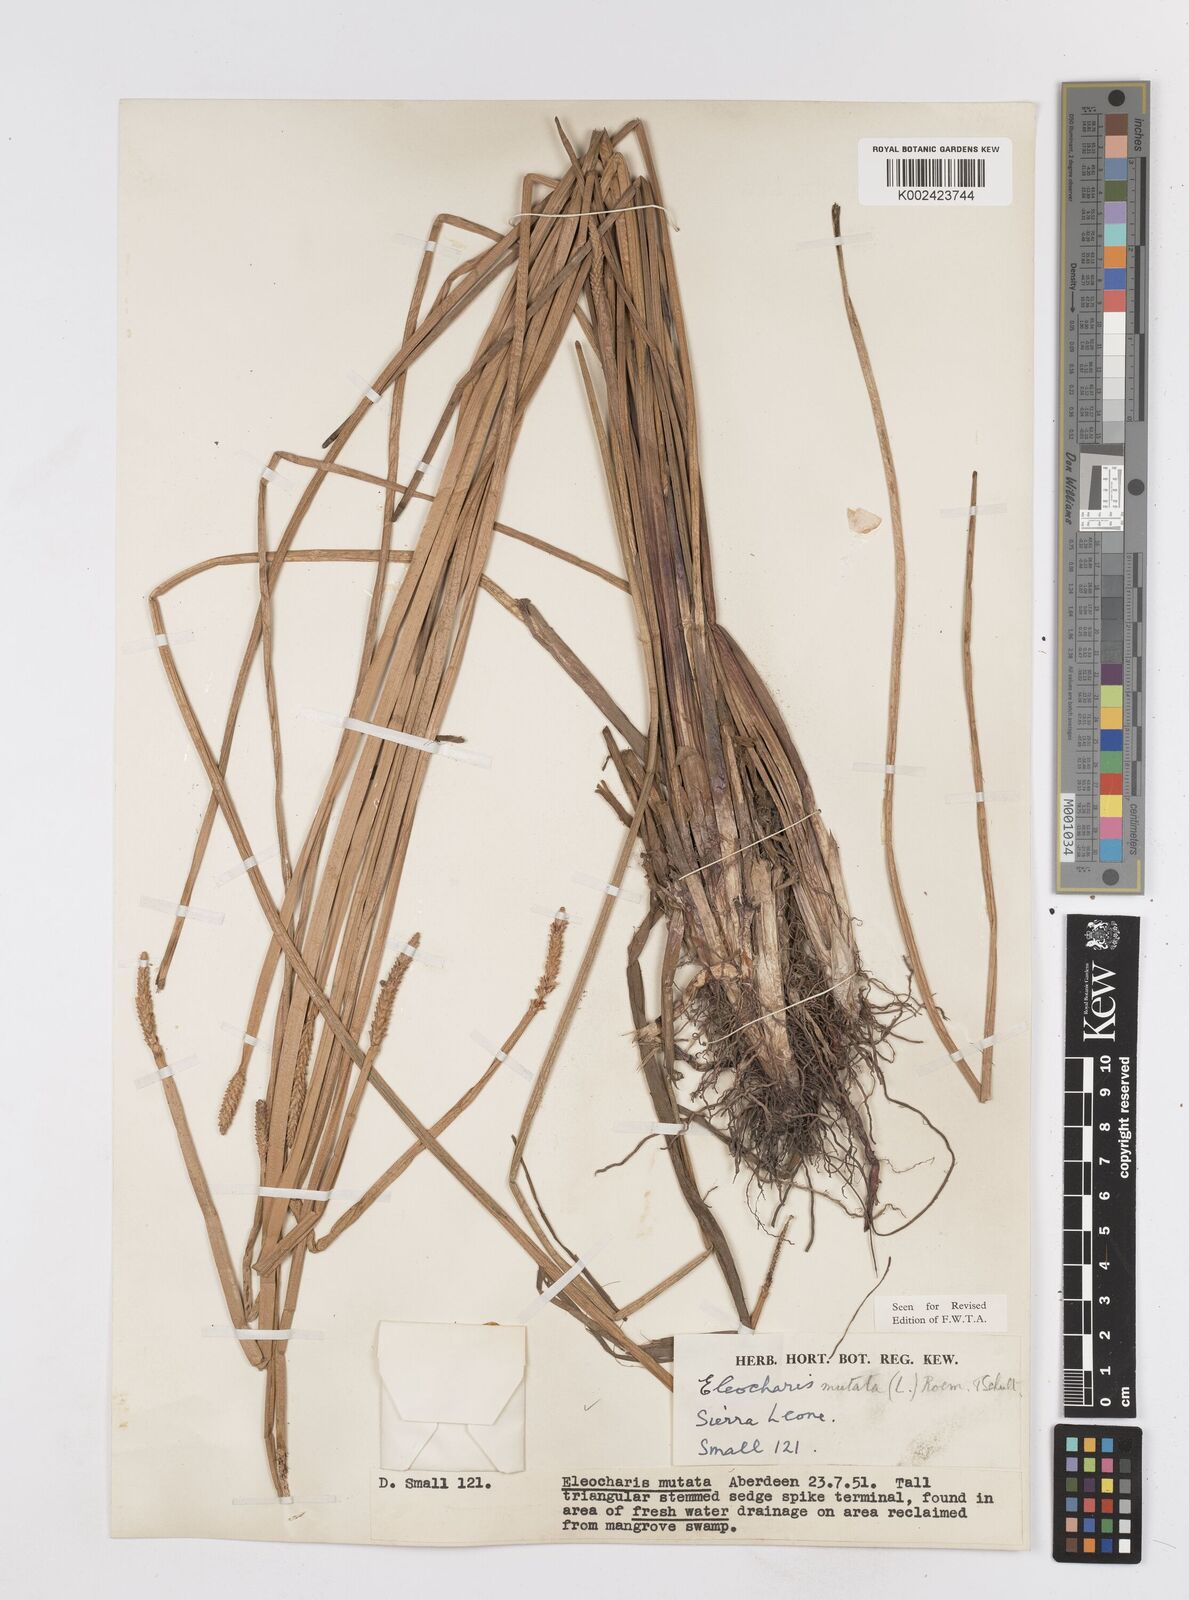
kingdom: Plantae
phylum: Tracheophyta
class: Liliopsida
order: Poales
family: Cyperaceae
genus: Eleocharis
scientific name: Eleocharis mutata
